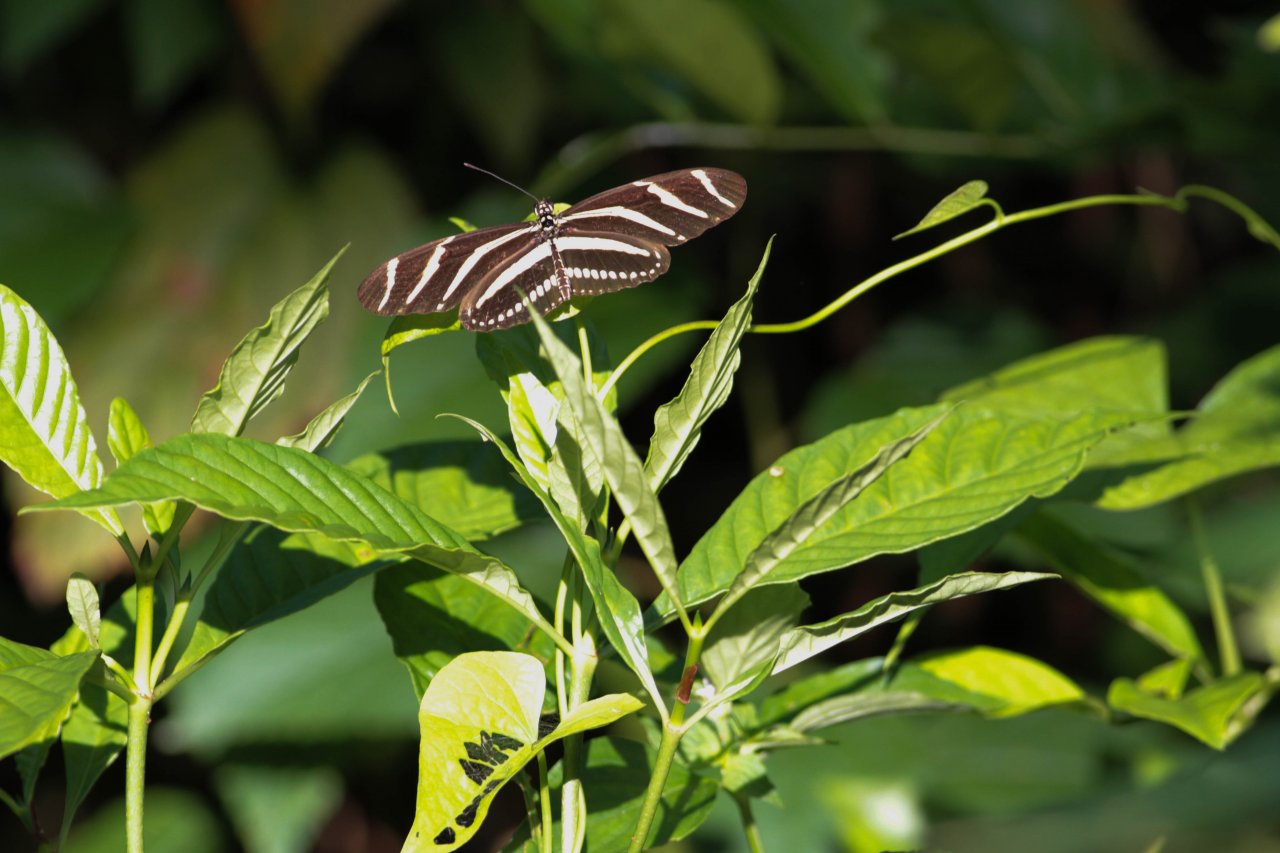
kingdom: Animalia
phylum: Arthropoda
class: Insecta
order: Lepidoptera
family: Nymphalidae
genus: Heliconius
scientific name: Heliconius charithonia
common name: Zebra Longwing
